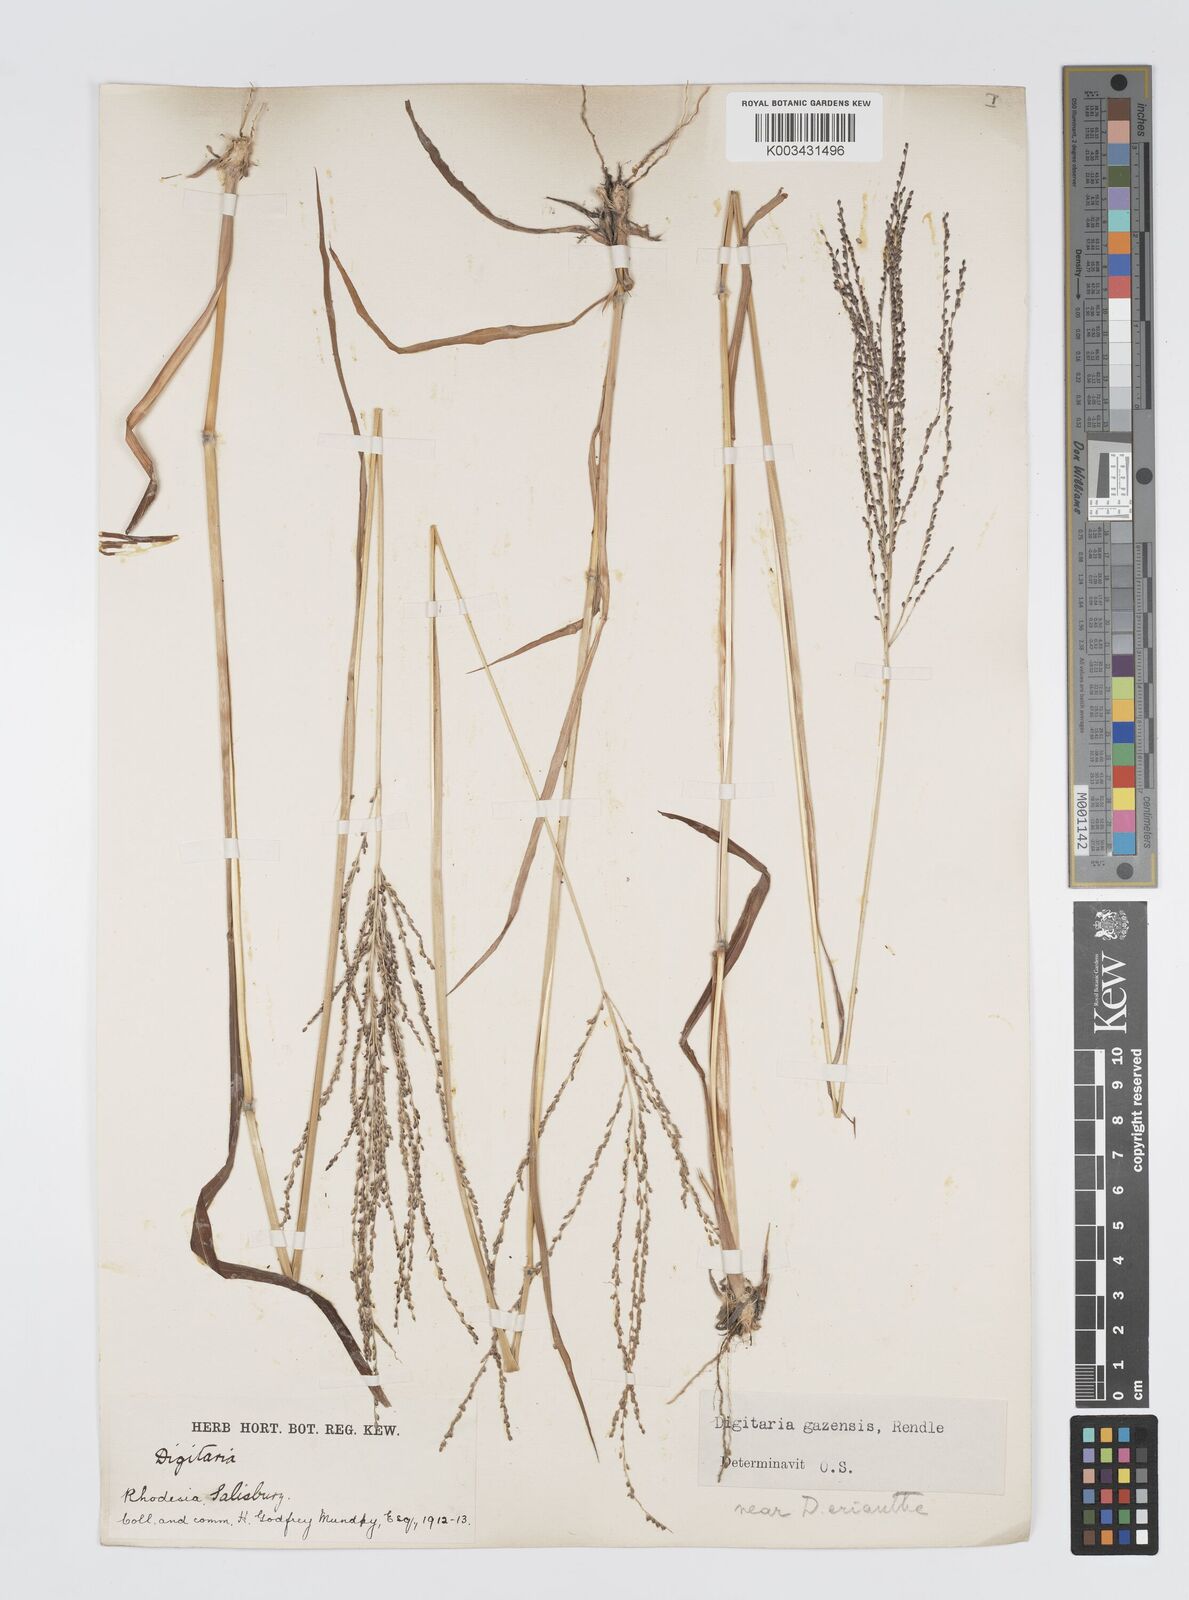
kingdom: Plantae
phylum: Tracheophyta
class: Liliopsida
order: Poales
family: Poaceae
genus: Digitaria
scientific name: Digitaria gazensis
